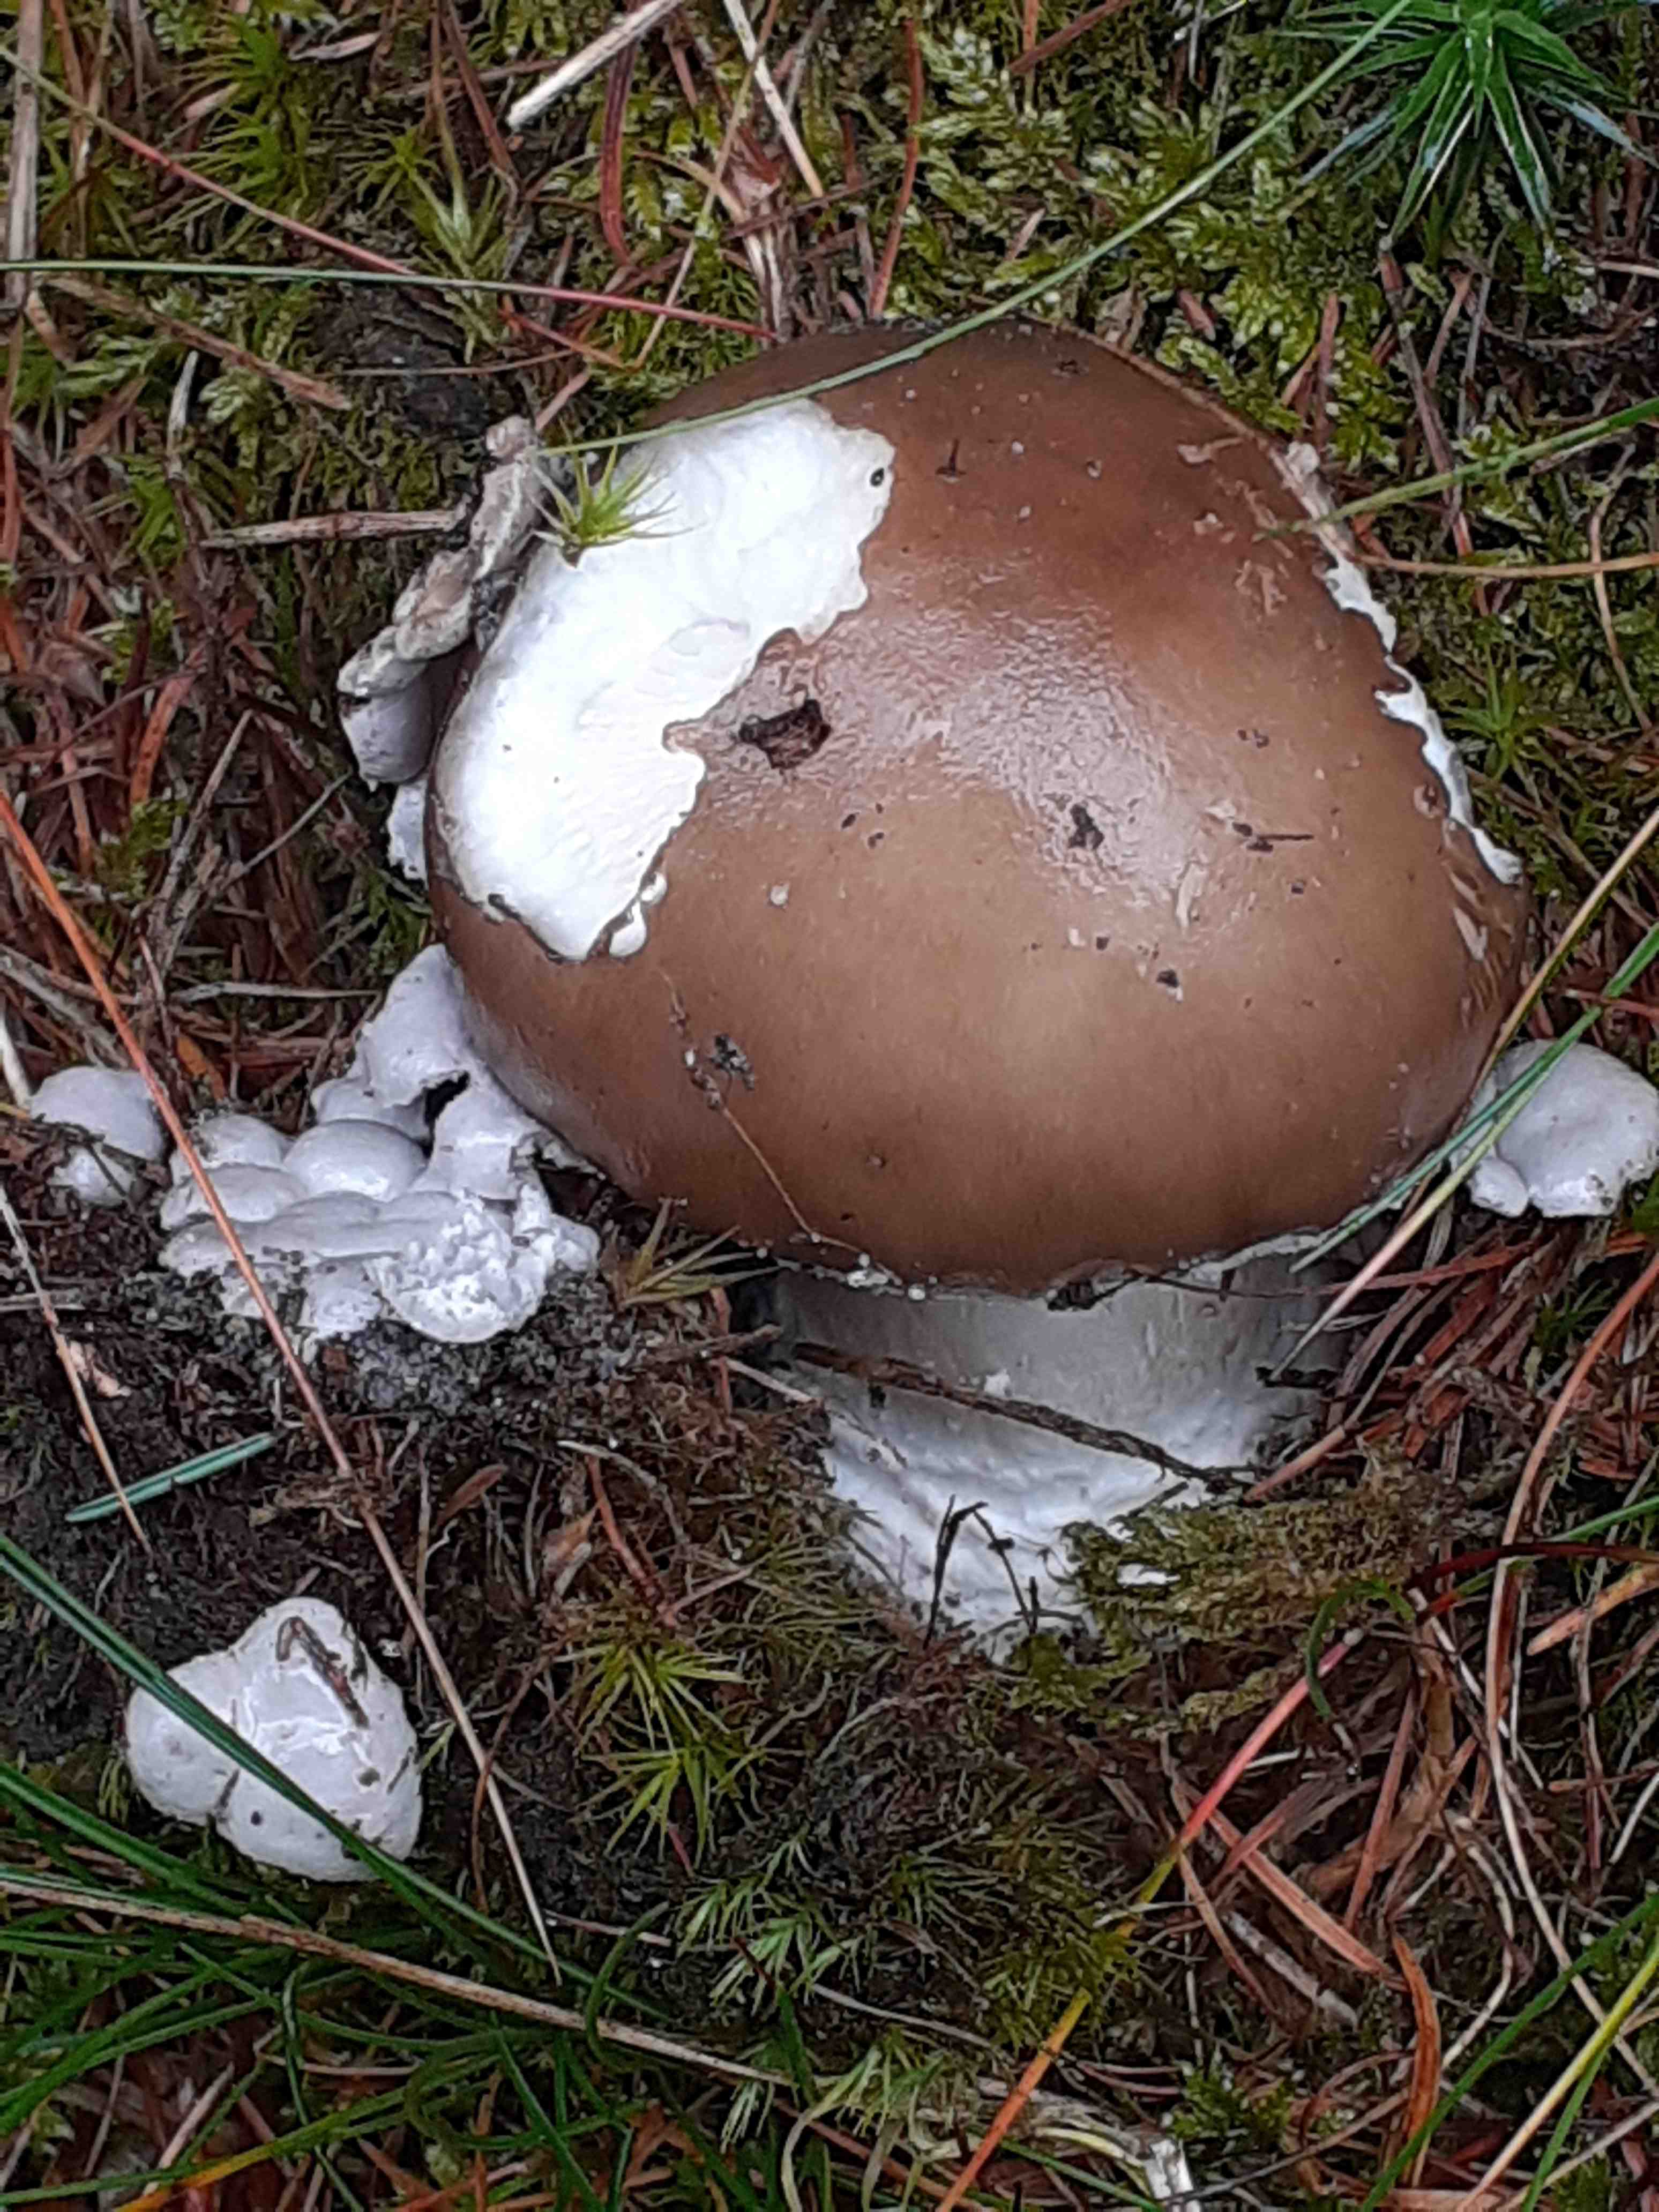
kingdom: Fungi
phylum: Basidiomycota
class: Agaricomycetes
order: Agaricales
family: Amanitaceae
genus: Amanita
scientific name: Amanita
